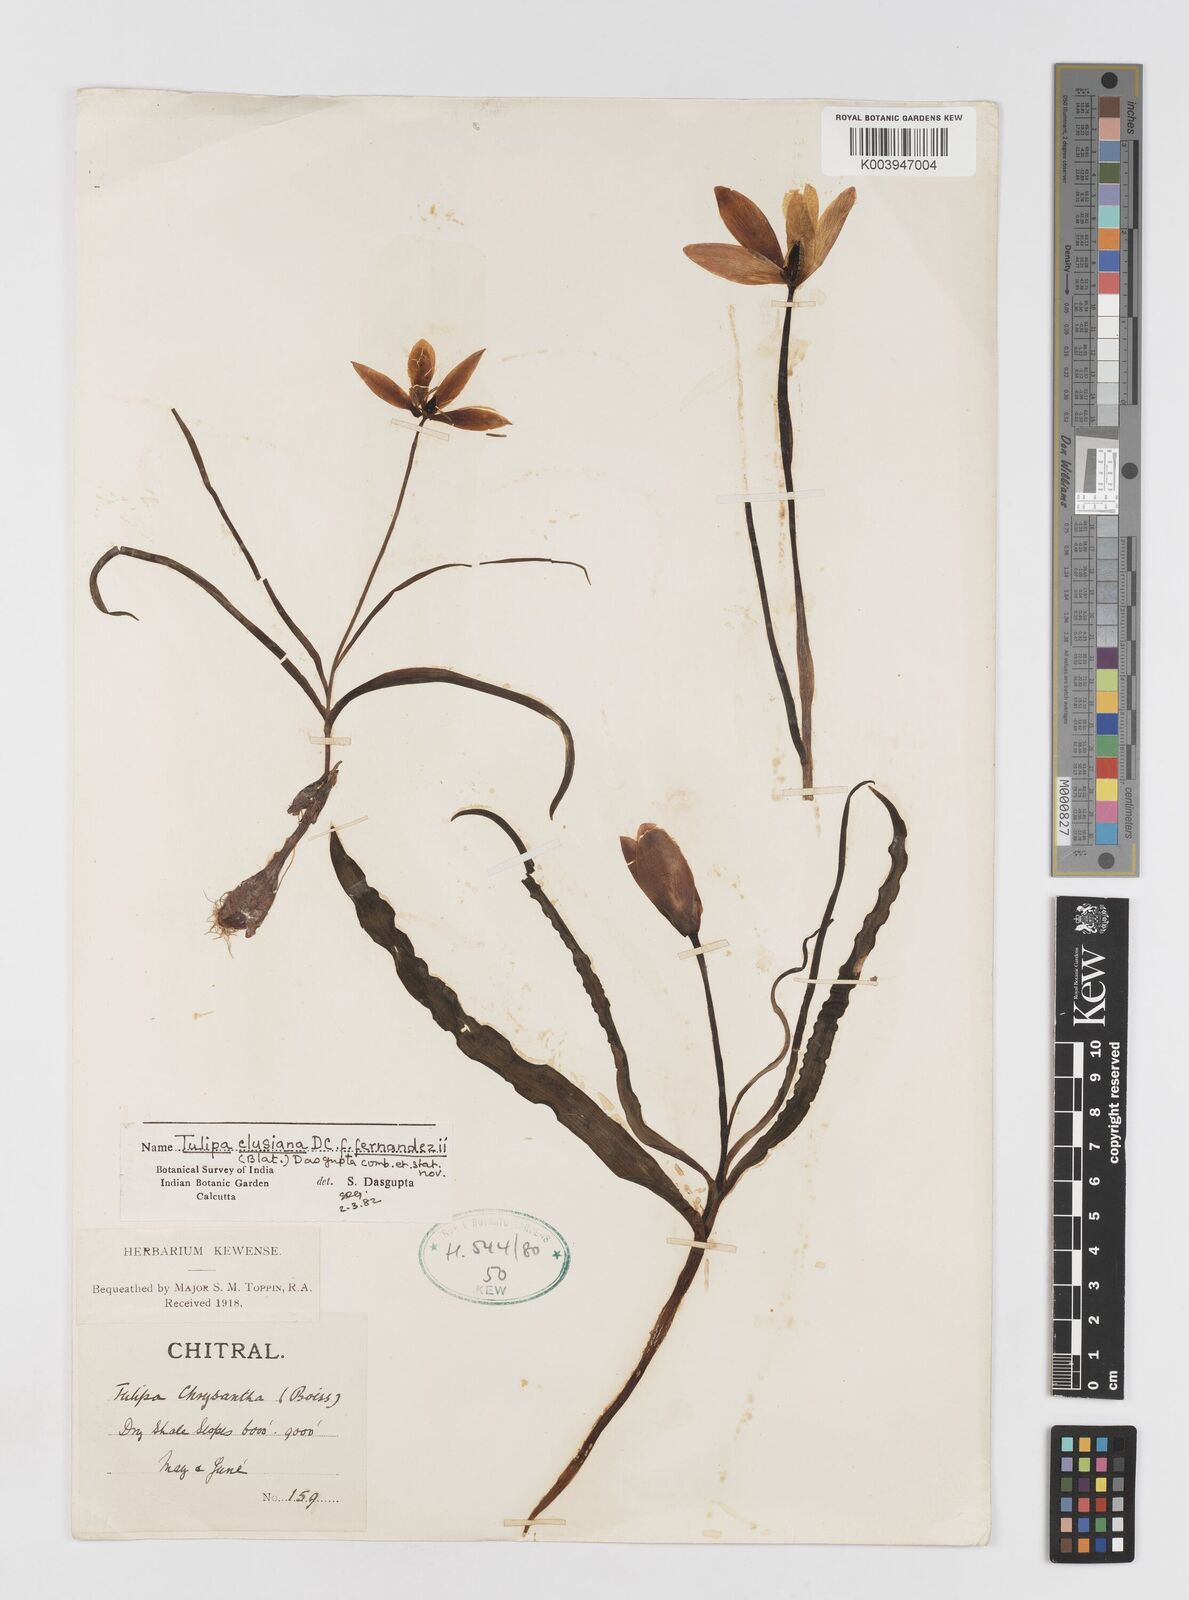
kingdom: Plantae
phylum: Tracheophyta
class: Liliopsida
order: Liliales
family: Liliaceae
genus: Tulipa
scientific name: Tulipa clusiana
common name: Lady tulip
